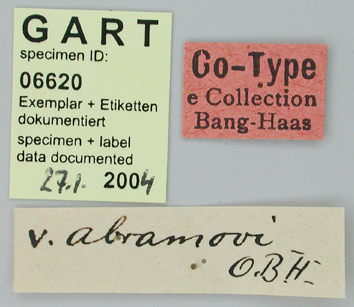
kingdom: Animalia
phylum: Arthropoda
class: Insecta
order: Lepidoptera
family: Papilionidae
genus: Parnassius
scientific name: Parnassius staudingeri
